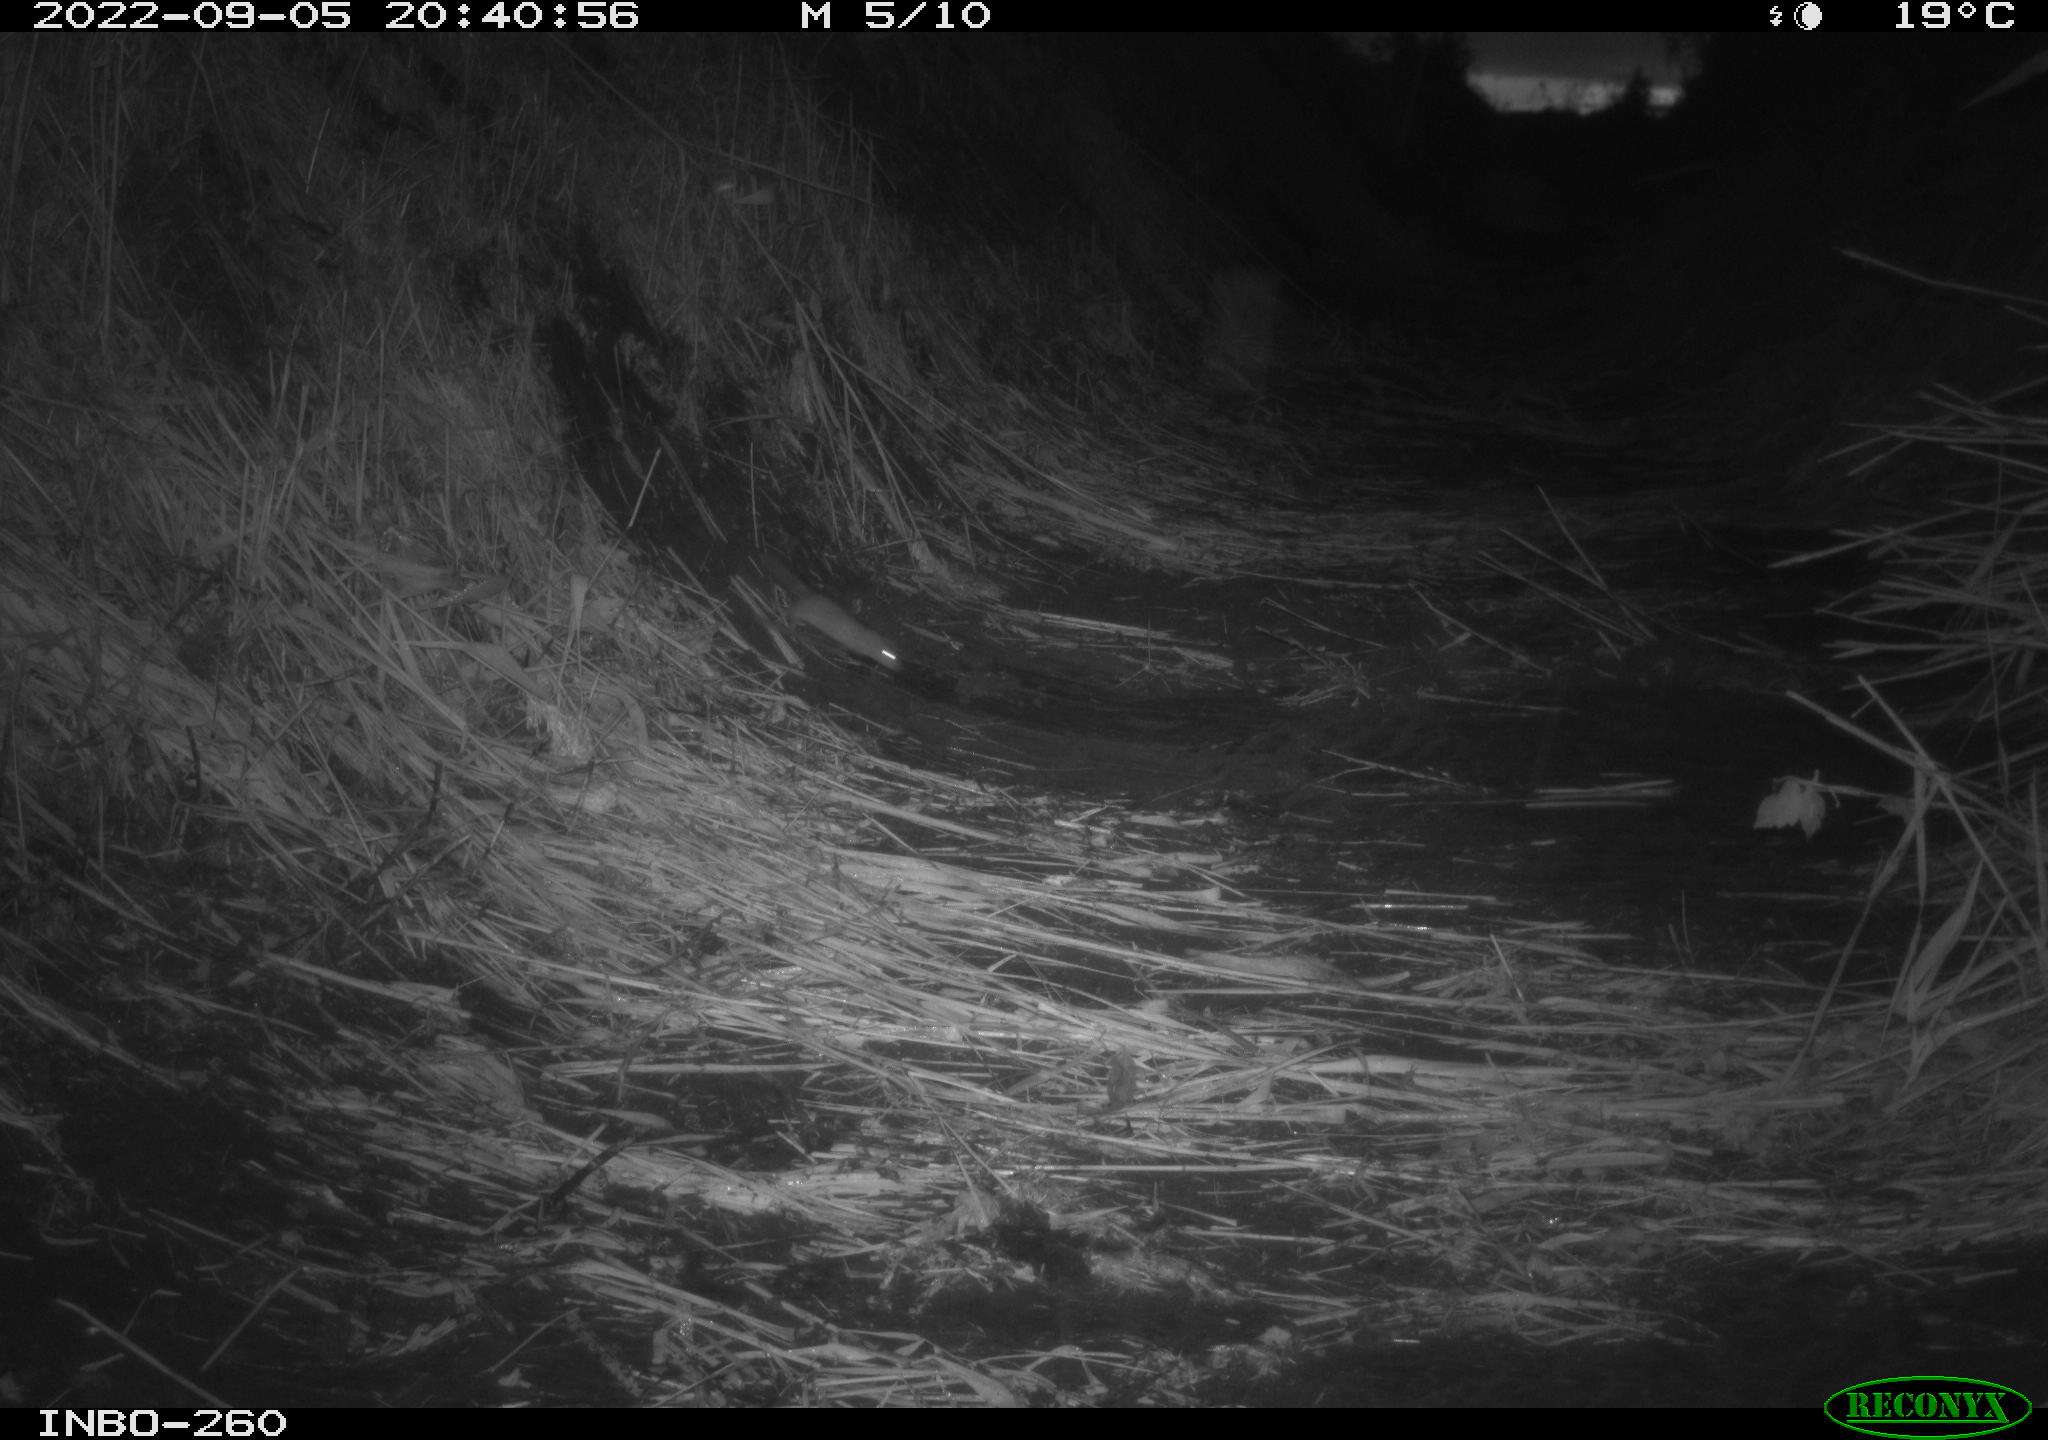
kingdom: Animalia
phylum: Chordata
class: Mammalia
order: Rodentia
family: Muridae
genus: Rattus
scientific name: Rattus norvegicus
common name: Brown rat
